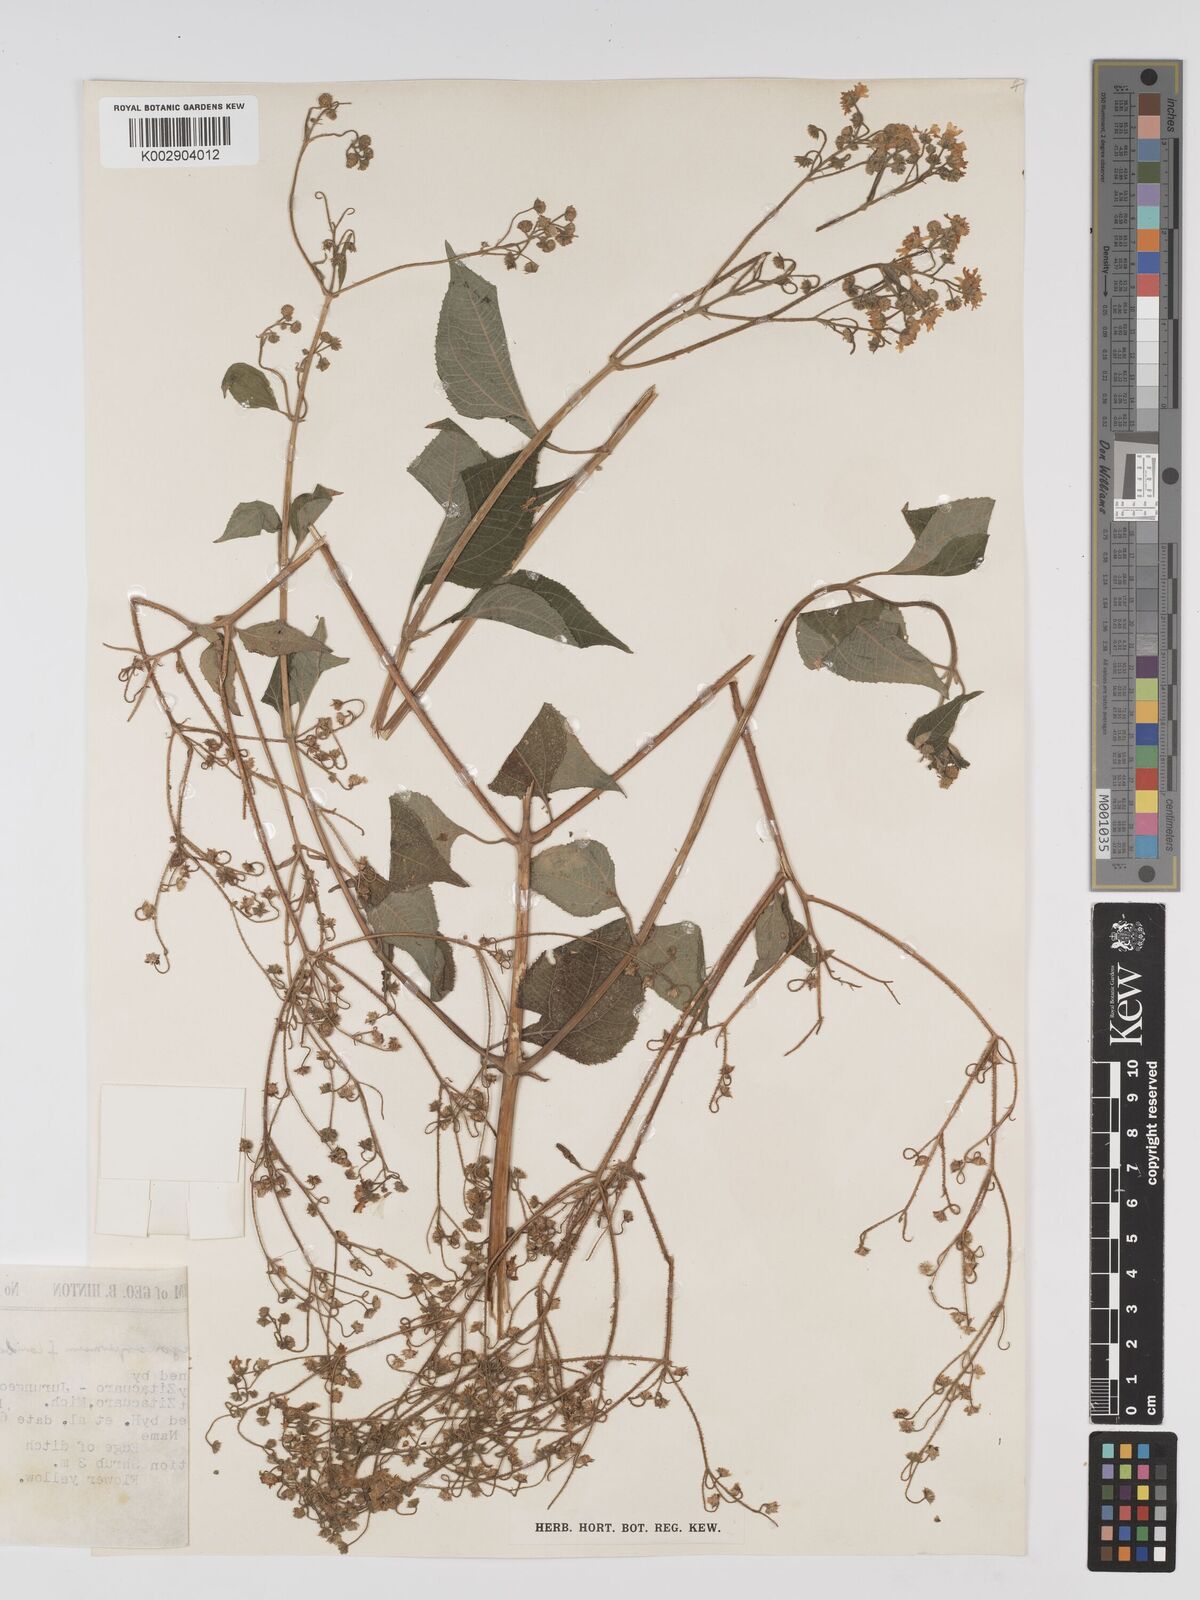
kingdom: Plantae
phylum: Tracheophyta
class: Magnoliopsida
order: Asterales
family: Asteraceae
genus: Trigonospermum
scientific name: Trigonospermum melampodioides
